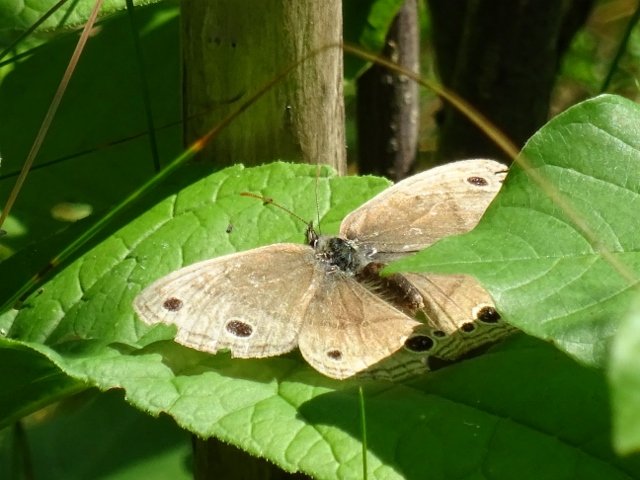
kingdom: Animalia
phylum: Arthropoda
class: Insecta
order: Lepidoptera
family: Nymphalidae
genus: Euptychia
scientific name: Euptychia cymela
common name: Little Wood Satyr
